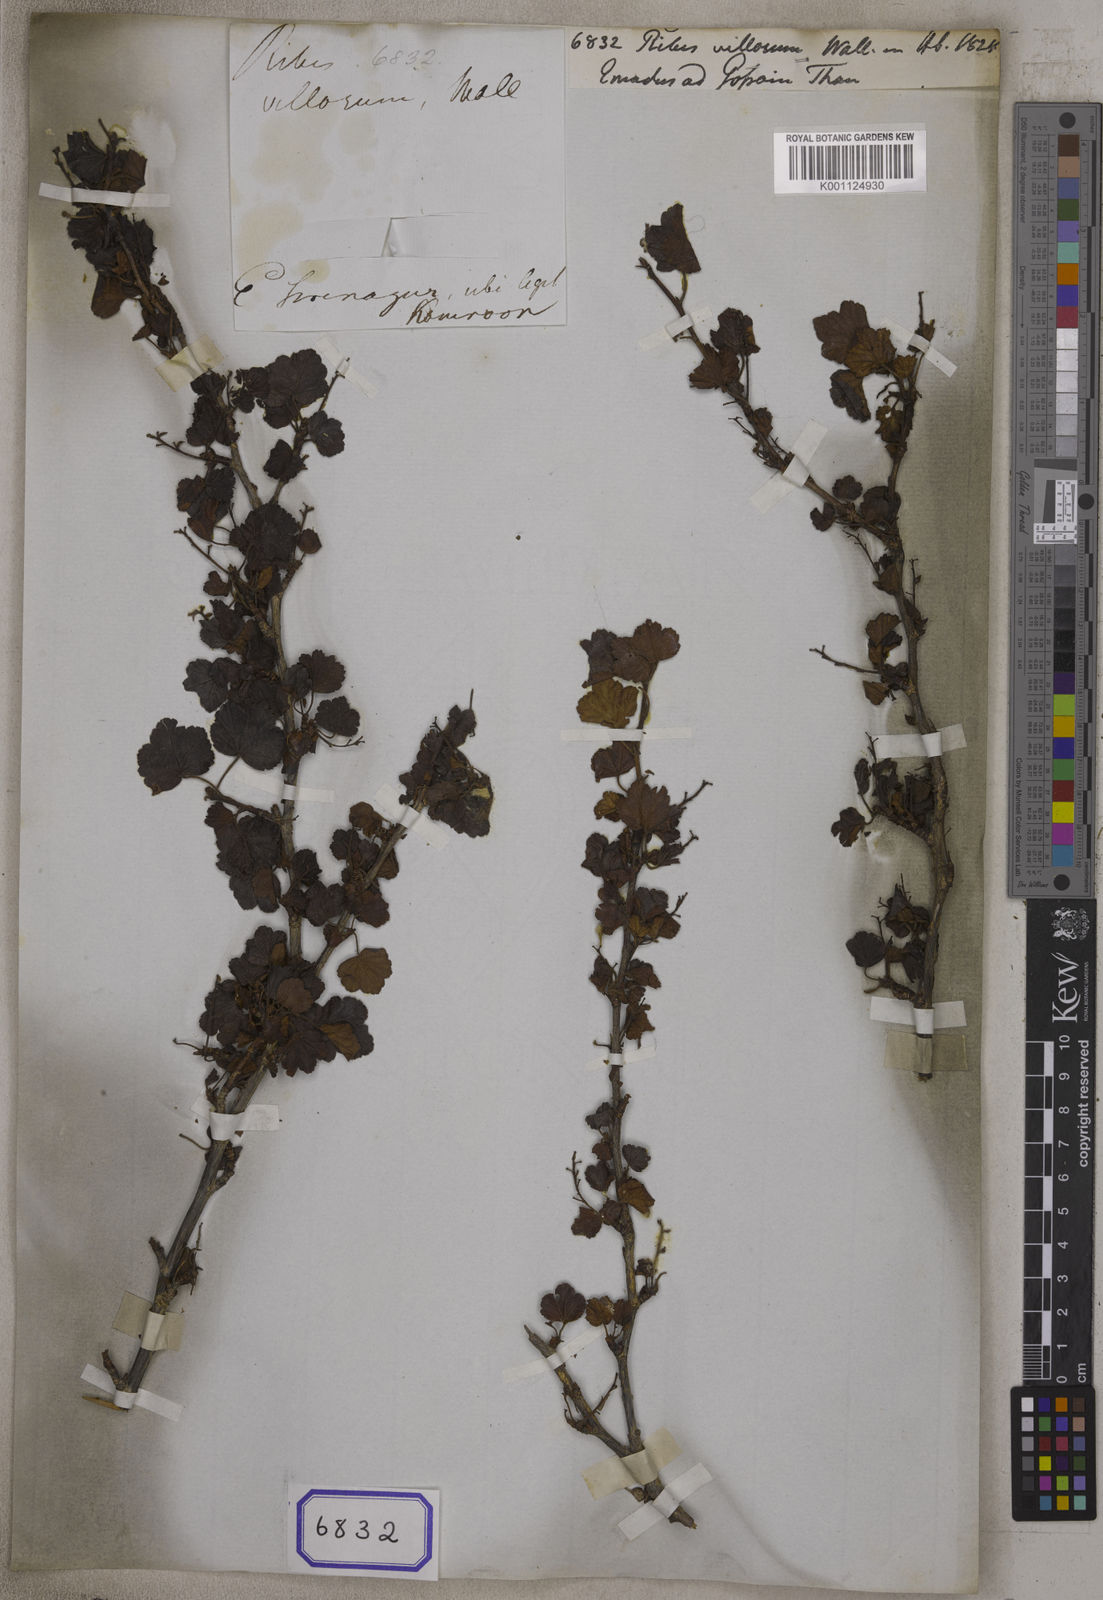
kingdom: Plantae
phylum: Tracheophyta
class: Magnoliopsida
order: Saxifragales
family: Grossulariaceae
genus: Ribes
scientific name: Ribes villosum
